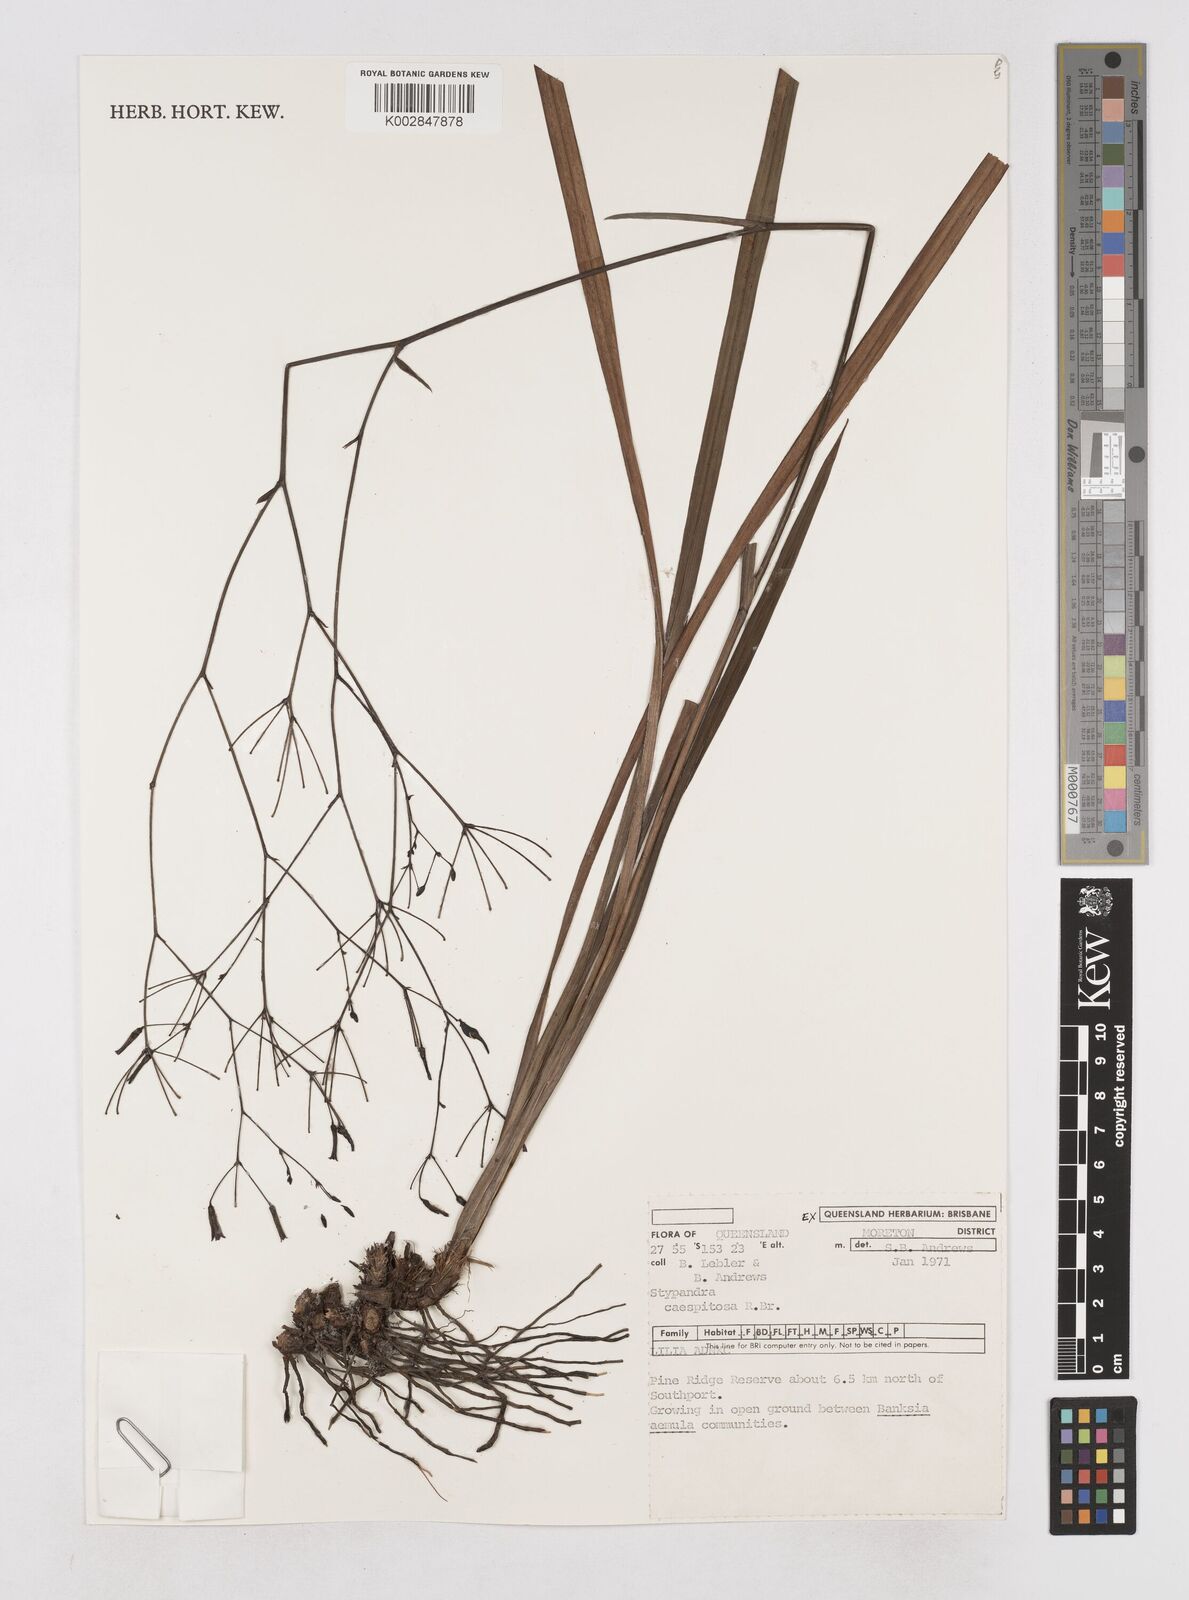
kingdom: Plantae
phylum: Tracheophyta
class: Liliopsida
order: Asparagales
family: Asphodelaceae
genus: Thelionema
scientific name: Thelionema caespitosum
